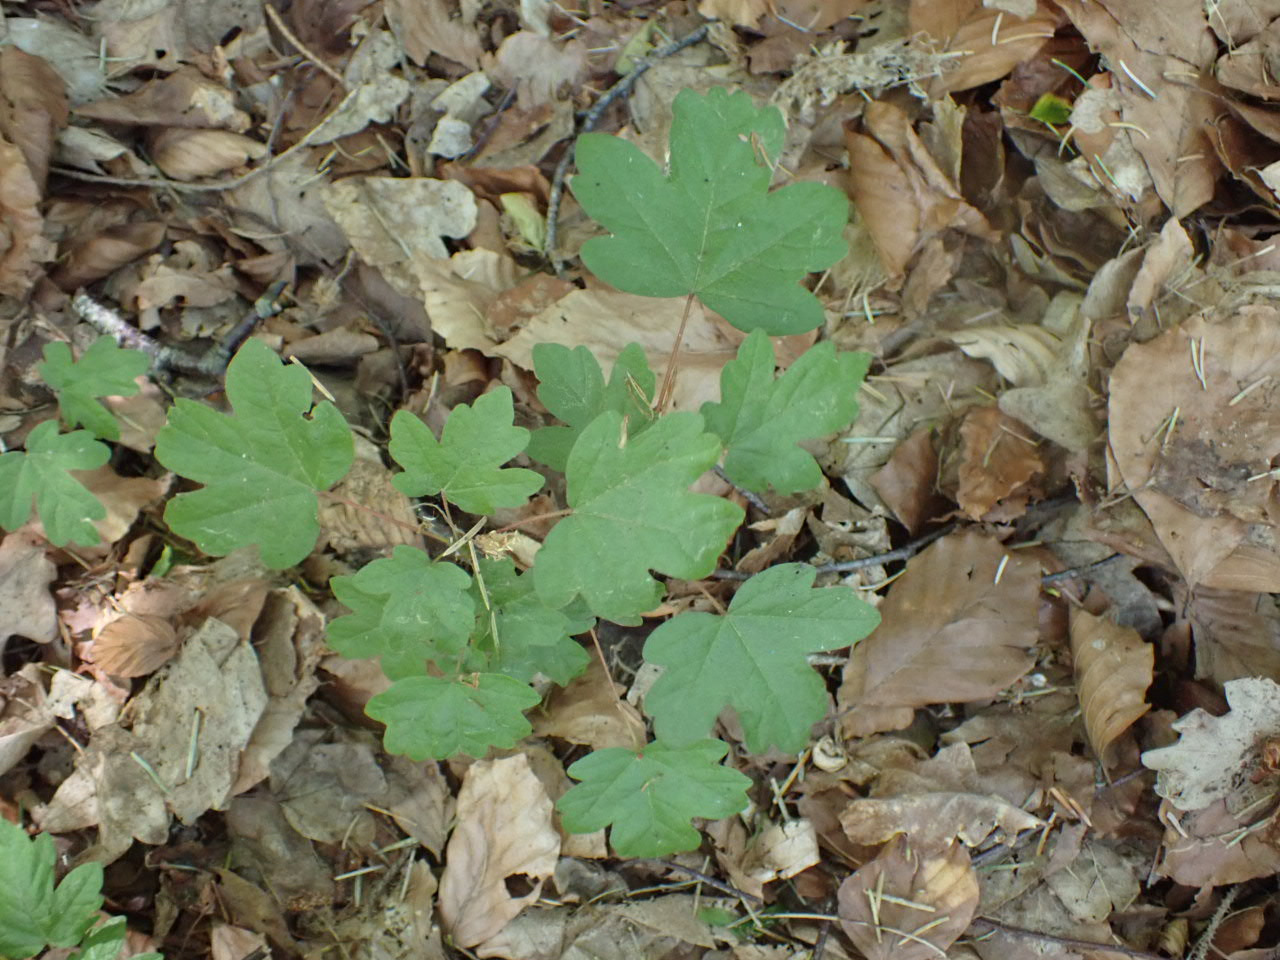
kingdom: Plantae
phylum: Tracheophyta
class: Magnoliopsida
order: Sapindales
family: Sapindaceae
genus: Acer
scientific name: Acer campestre
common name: Navr
